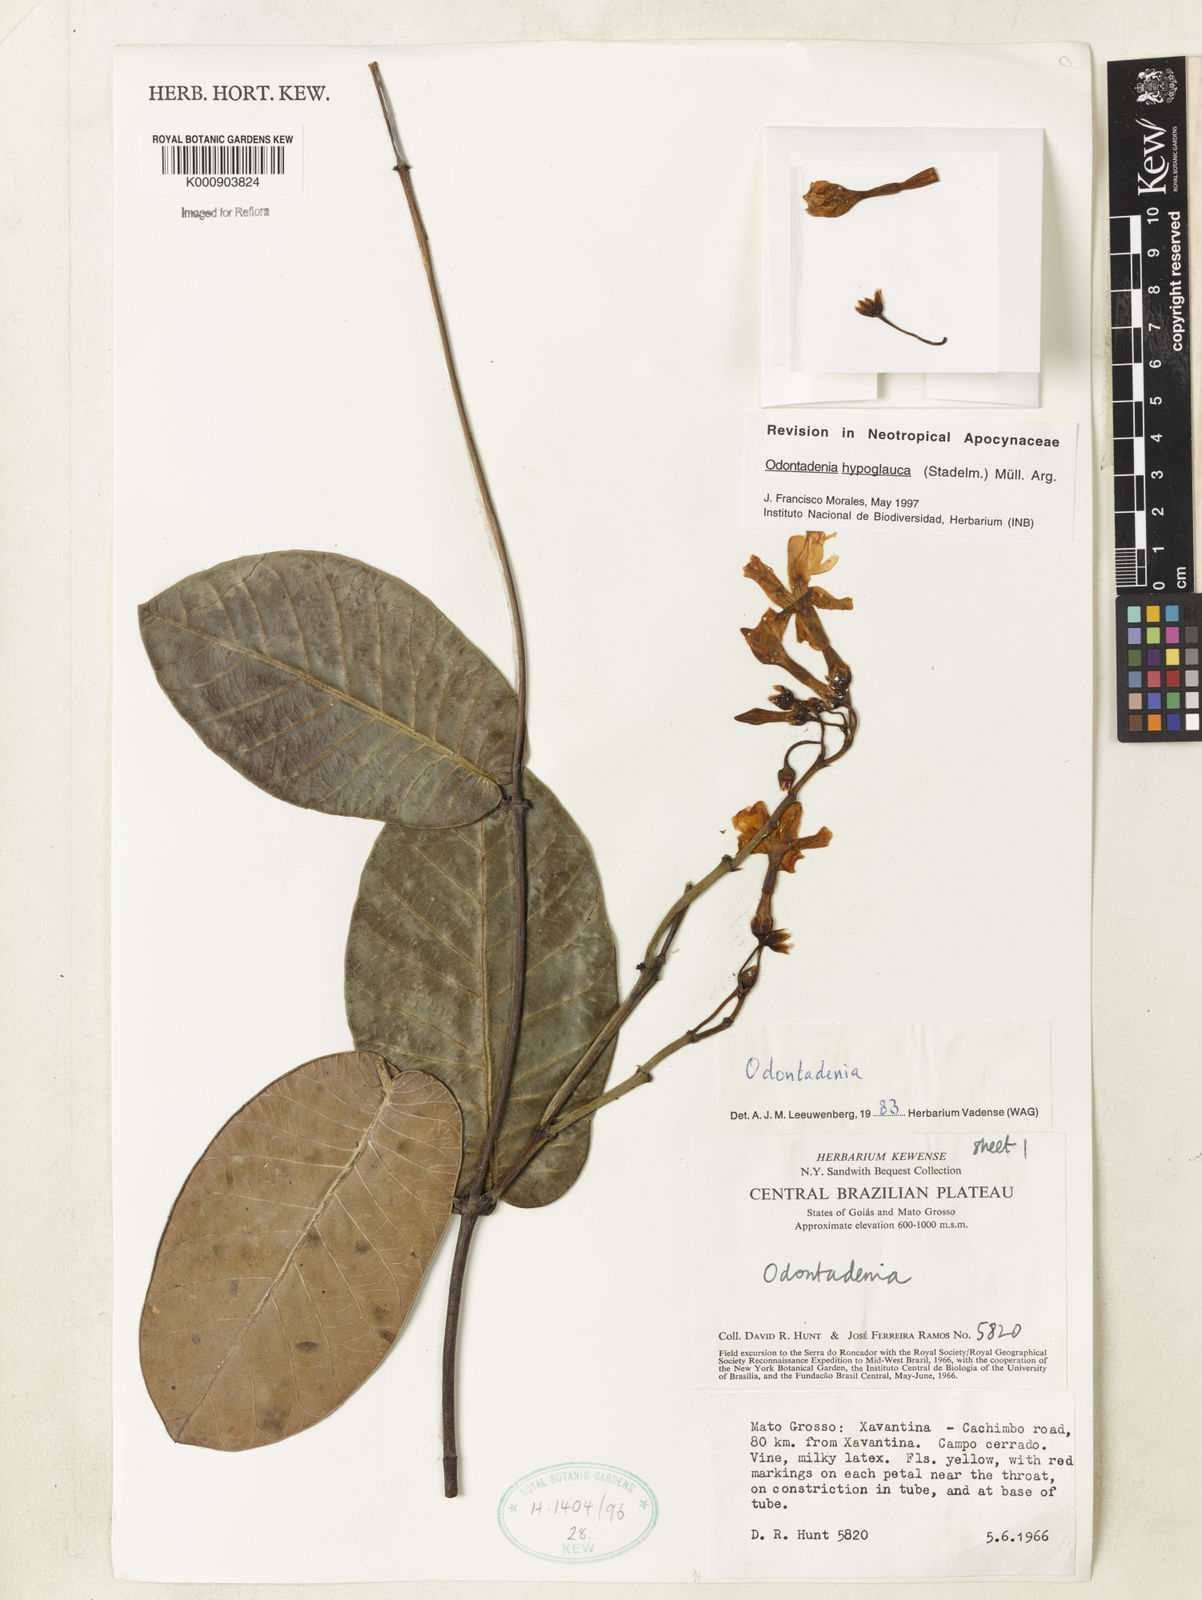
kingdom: Plantae
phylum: Tracheophyta
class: Magnoliopsida
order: Gentianales
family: Apocynaceae
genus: Odontadenia
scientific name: Odontadenia
